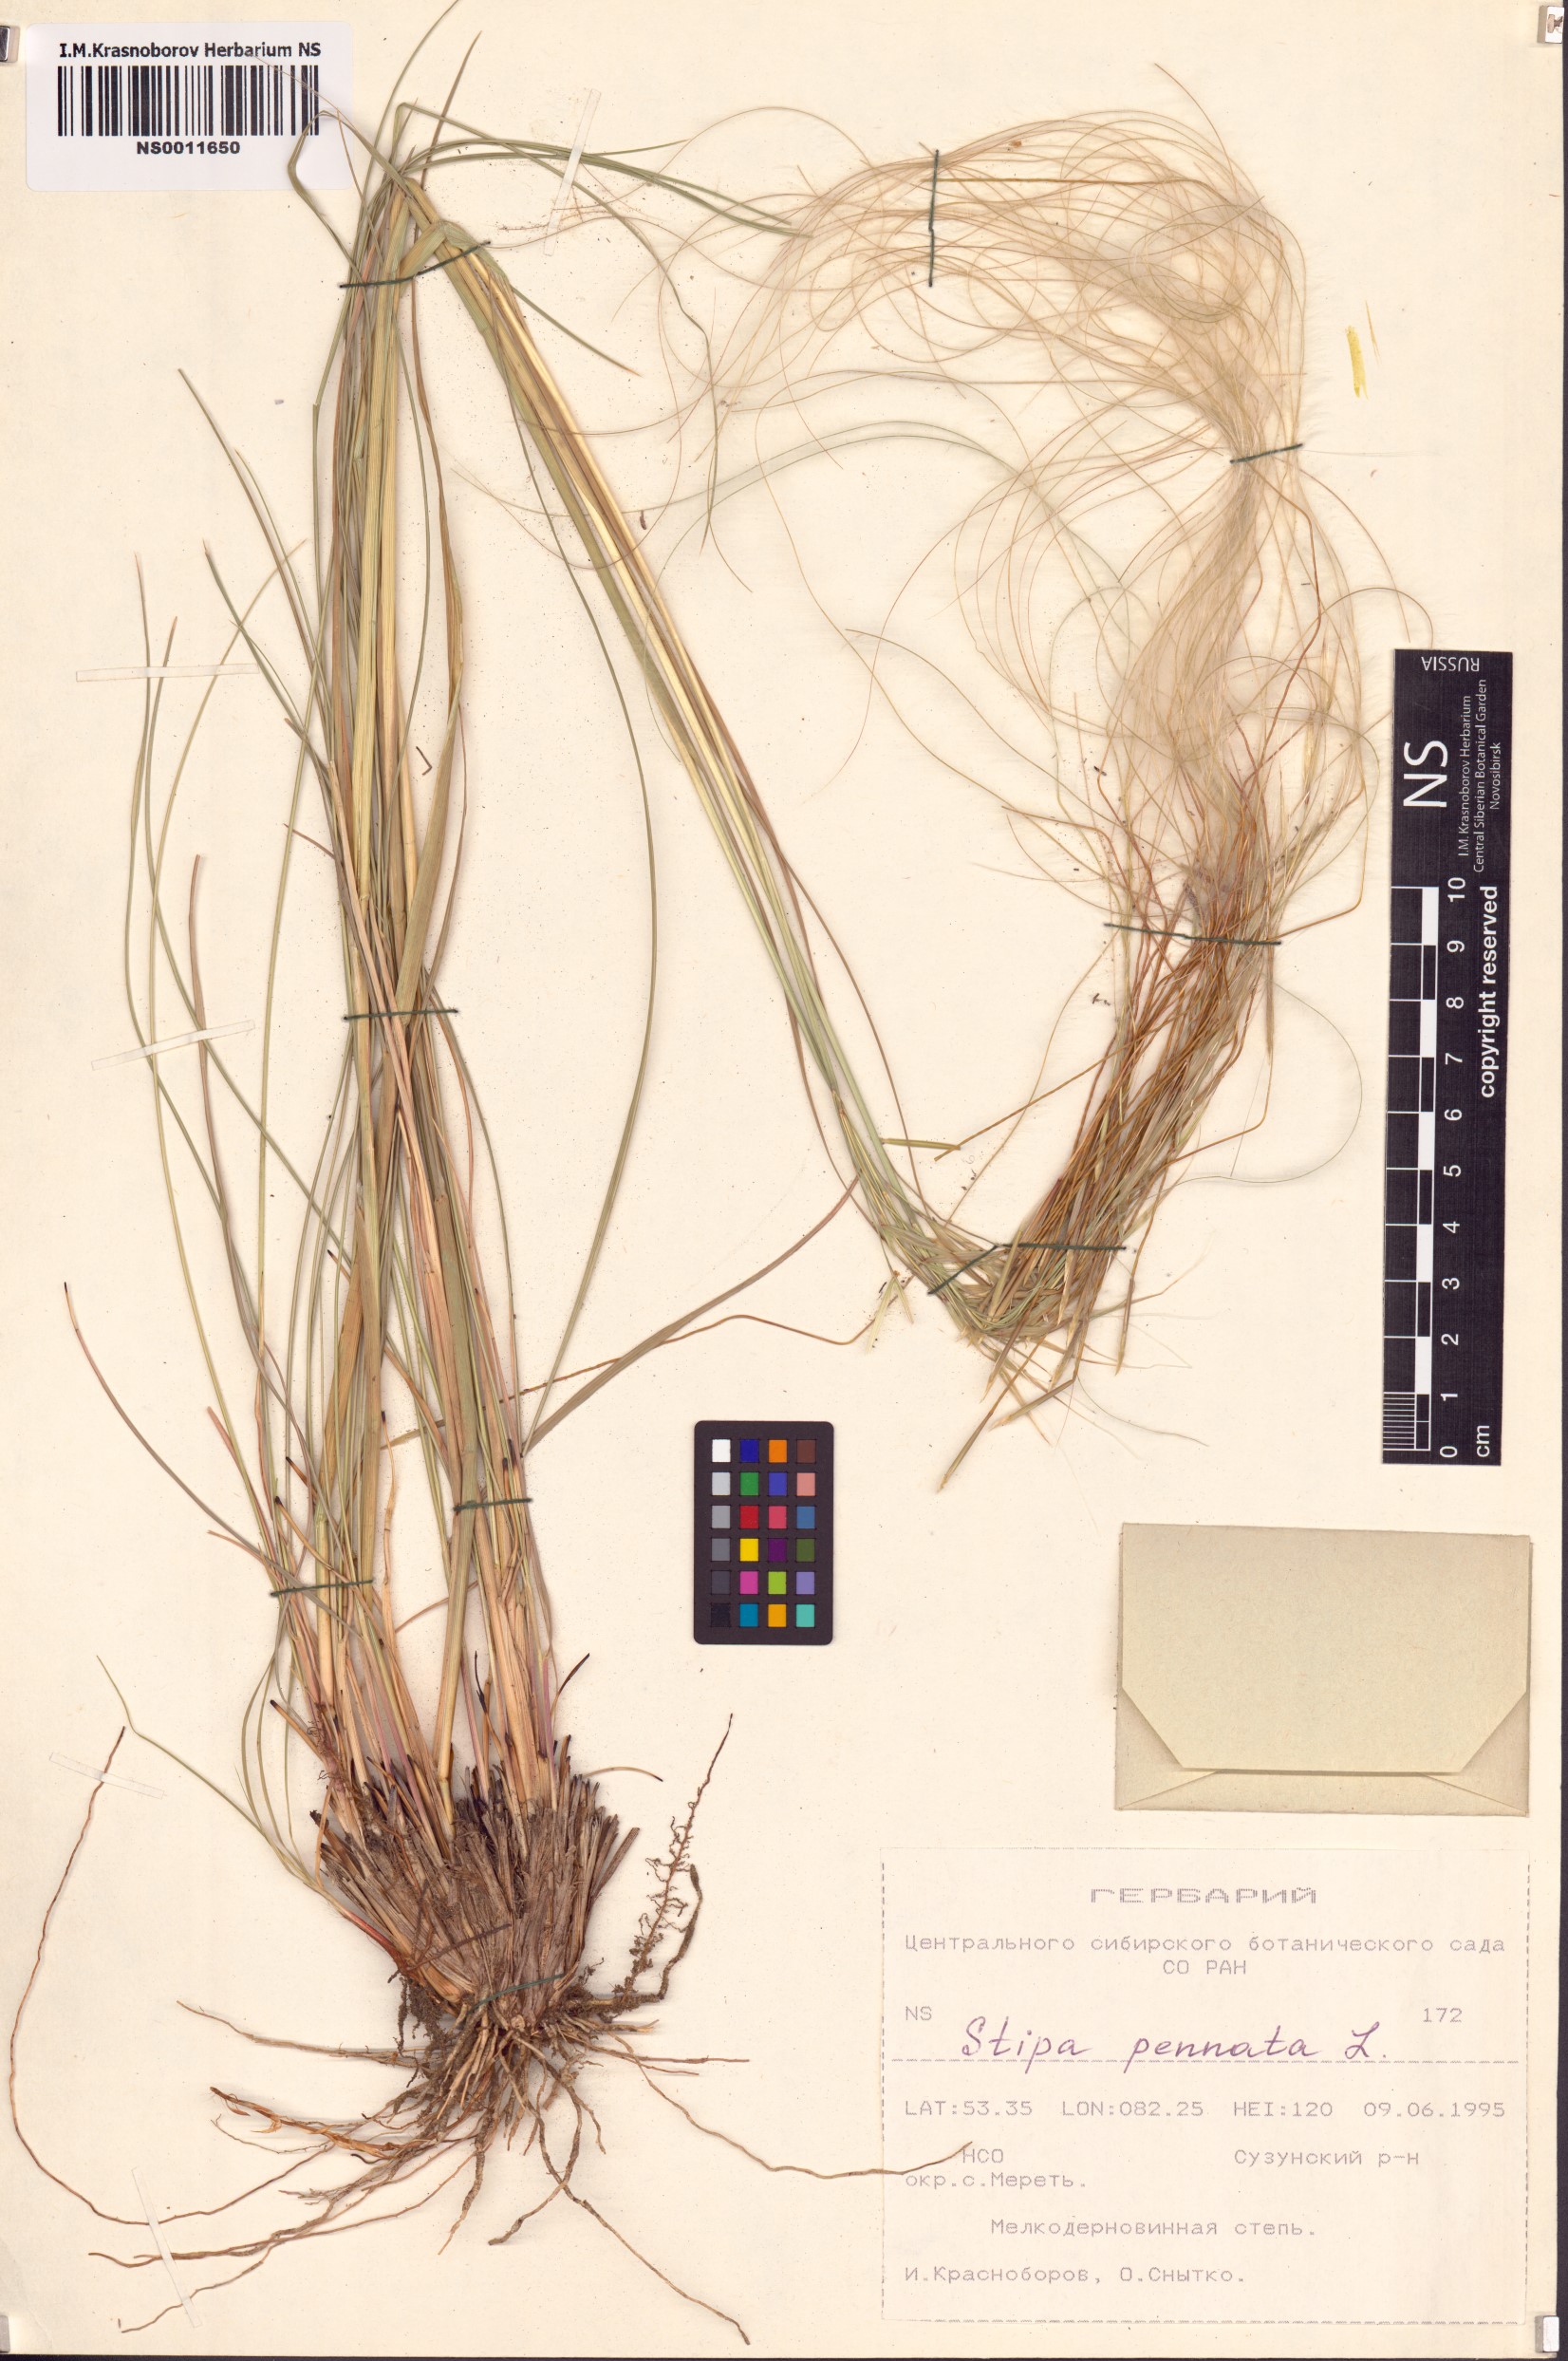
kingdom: Plantae
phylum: Tracheophyta
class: Liliopsida
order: Poales
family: Poaceae
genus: Stipa
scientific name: Stipa pennata
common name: European feather grass
